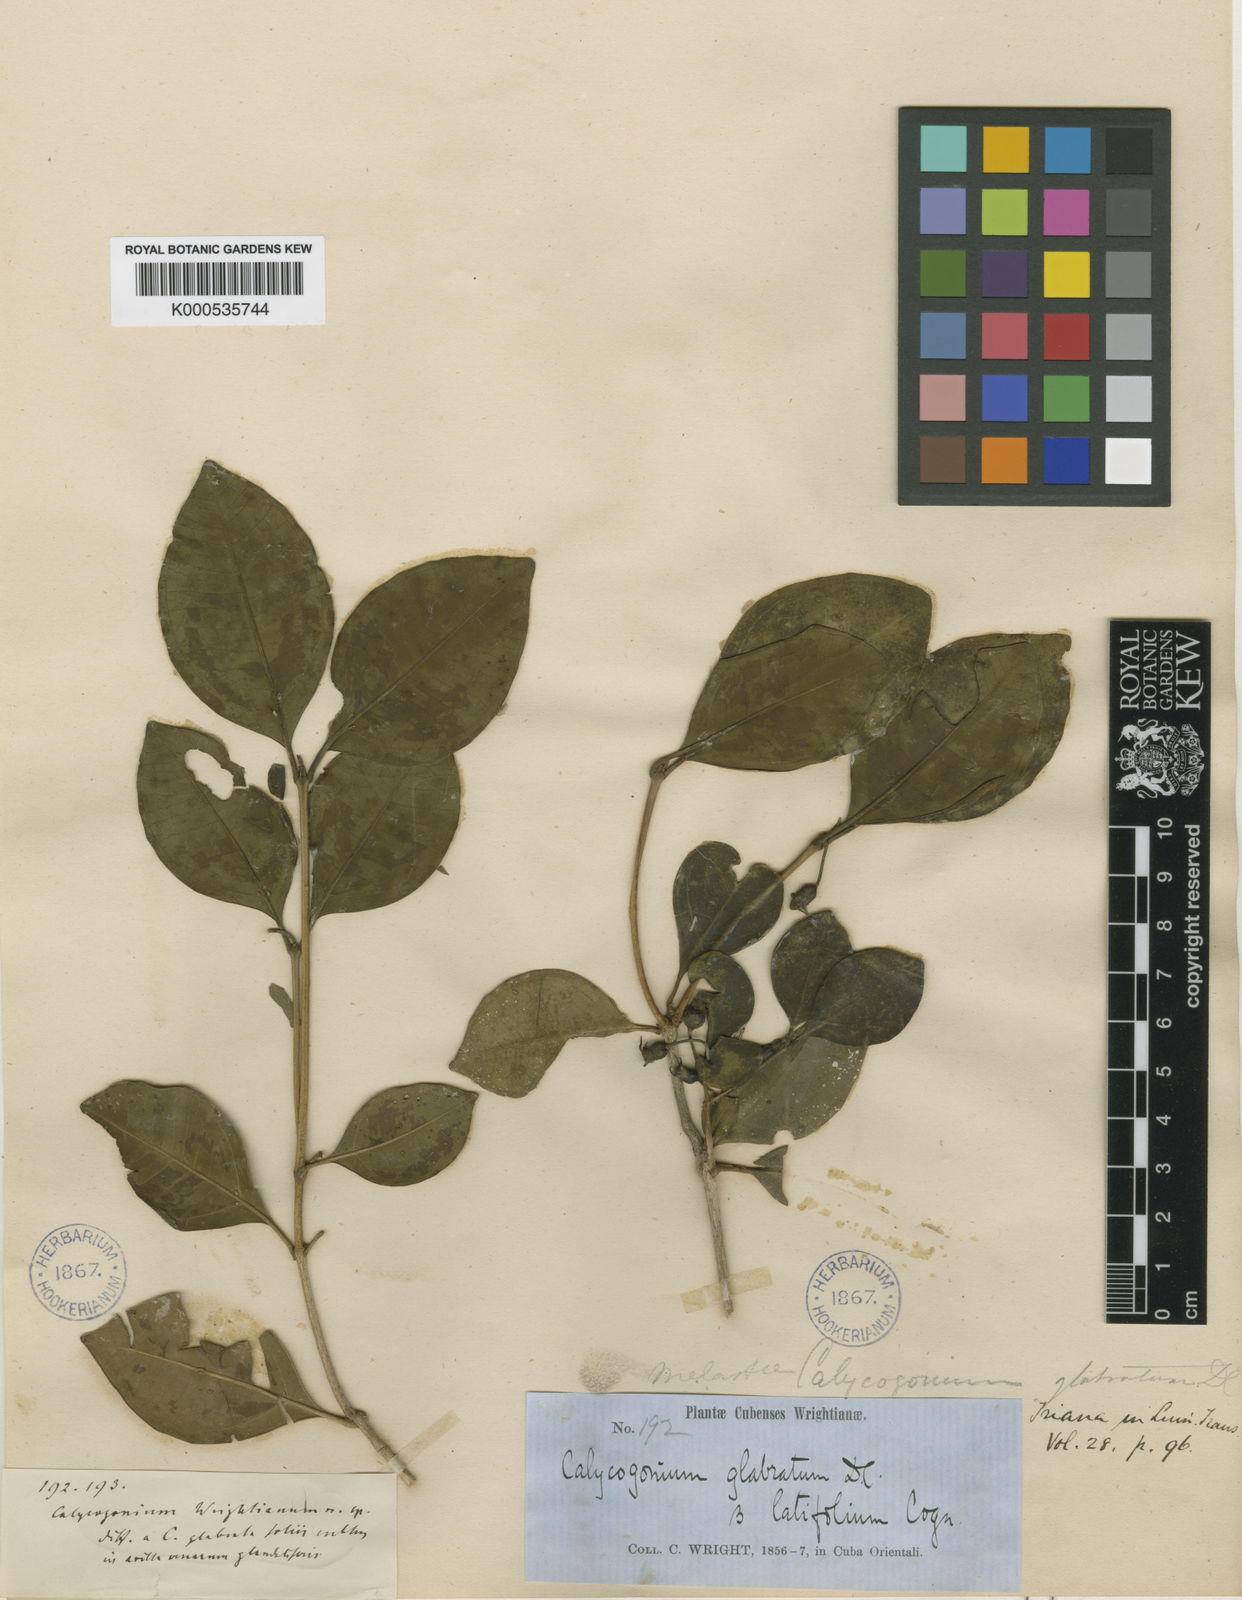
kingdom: Plantae
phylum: Tracheophyta
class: Magnoliopsida
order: Myrtales
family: Melastomataceae
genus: Miconia
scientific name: Miconia glabrifolia
